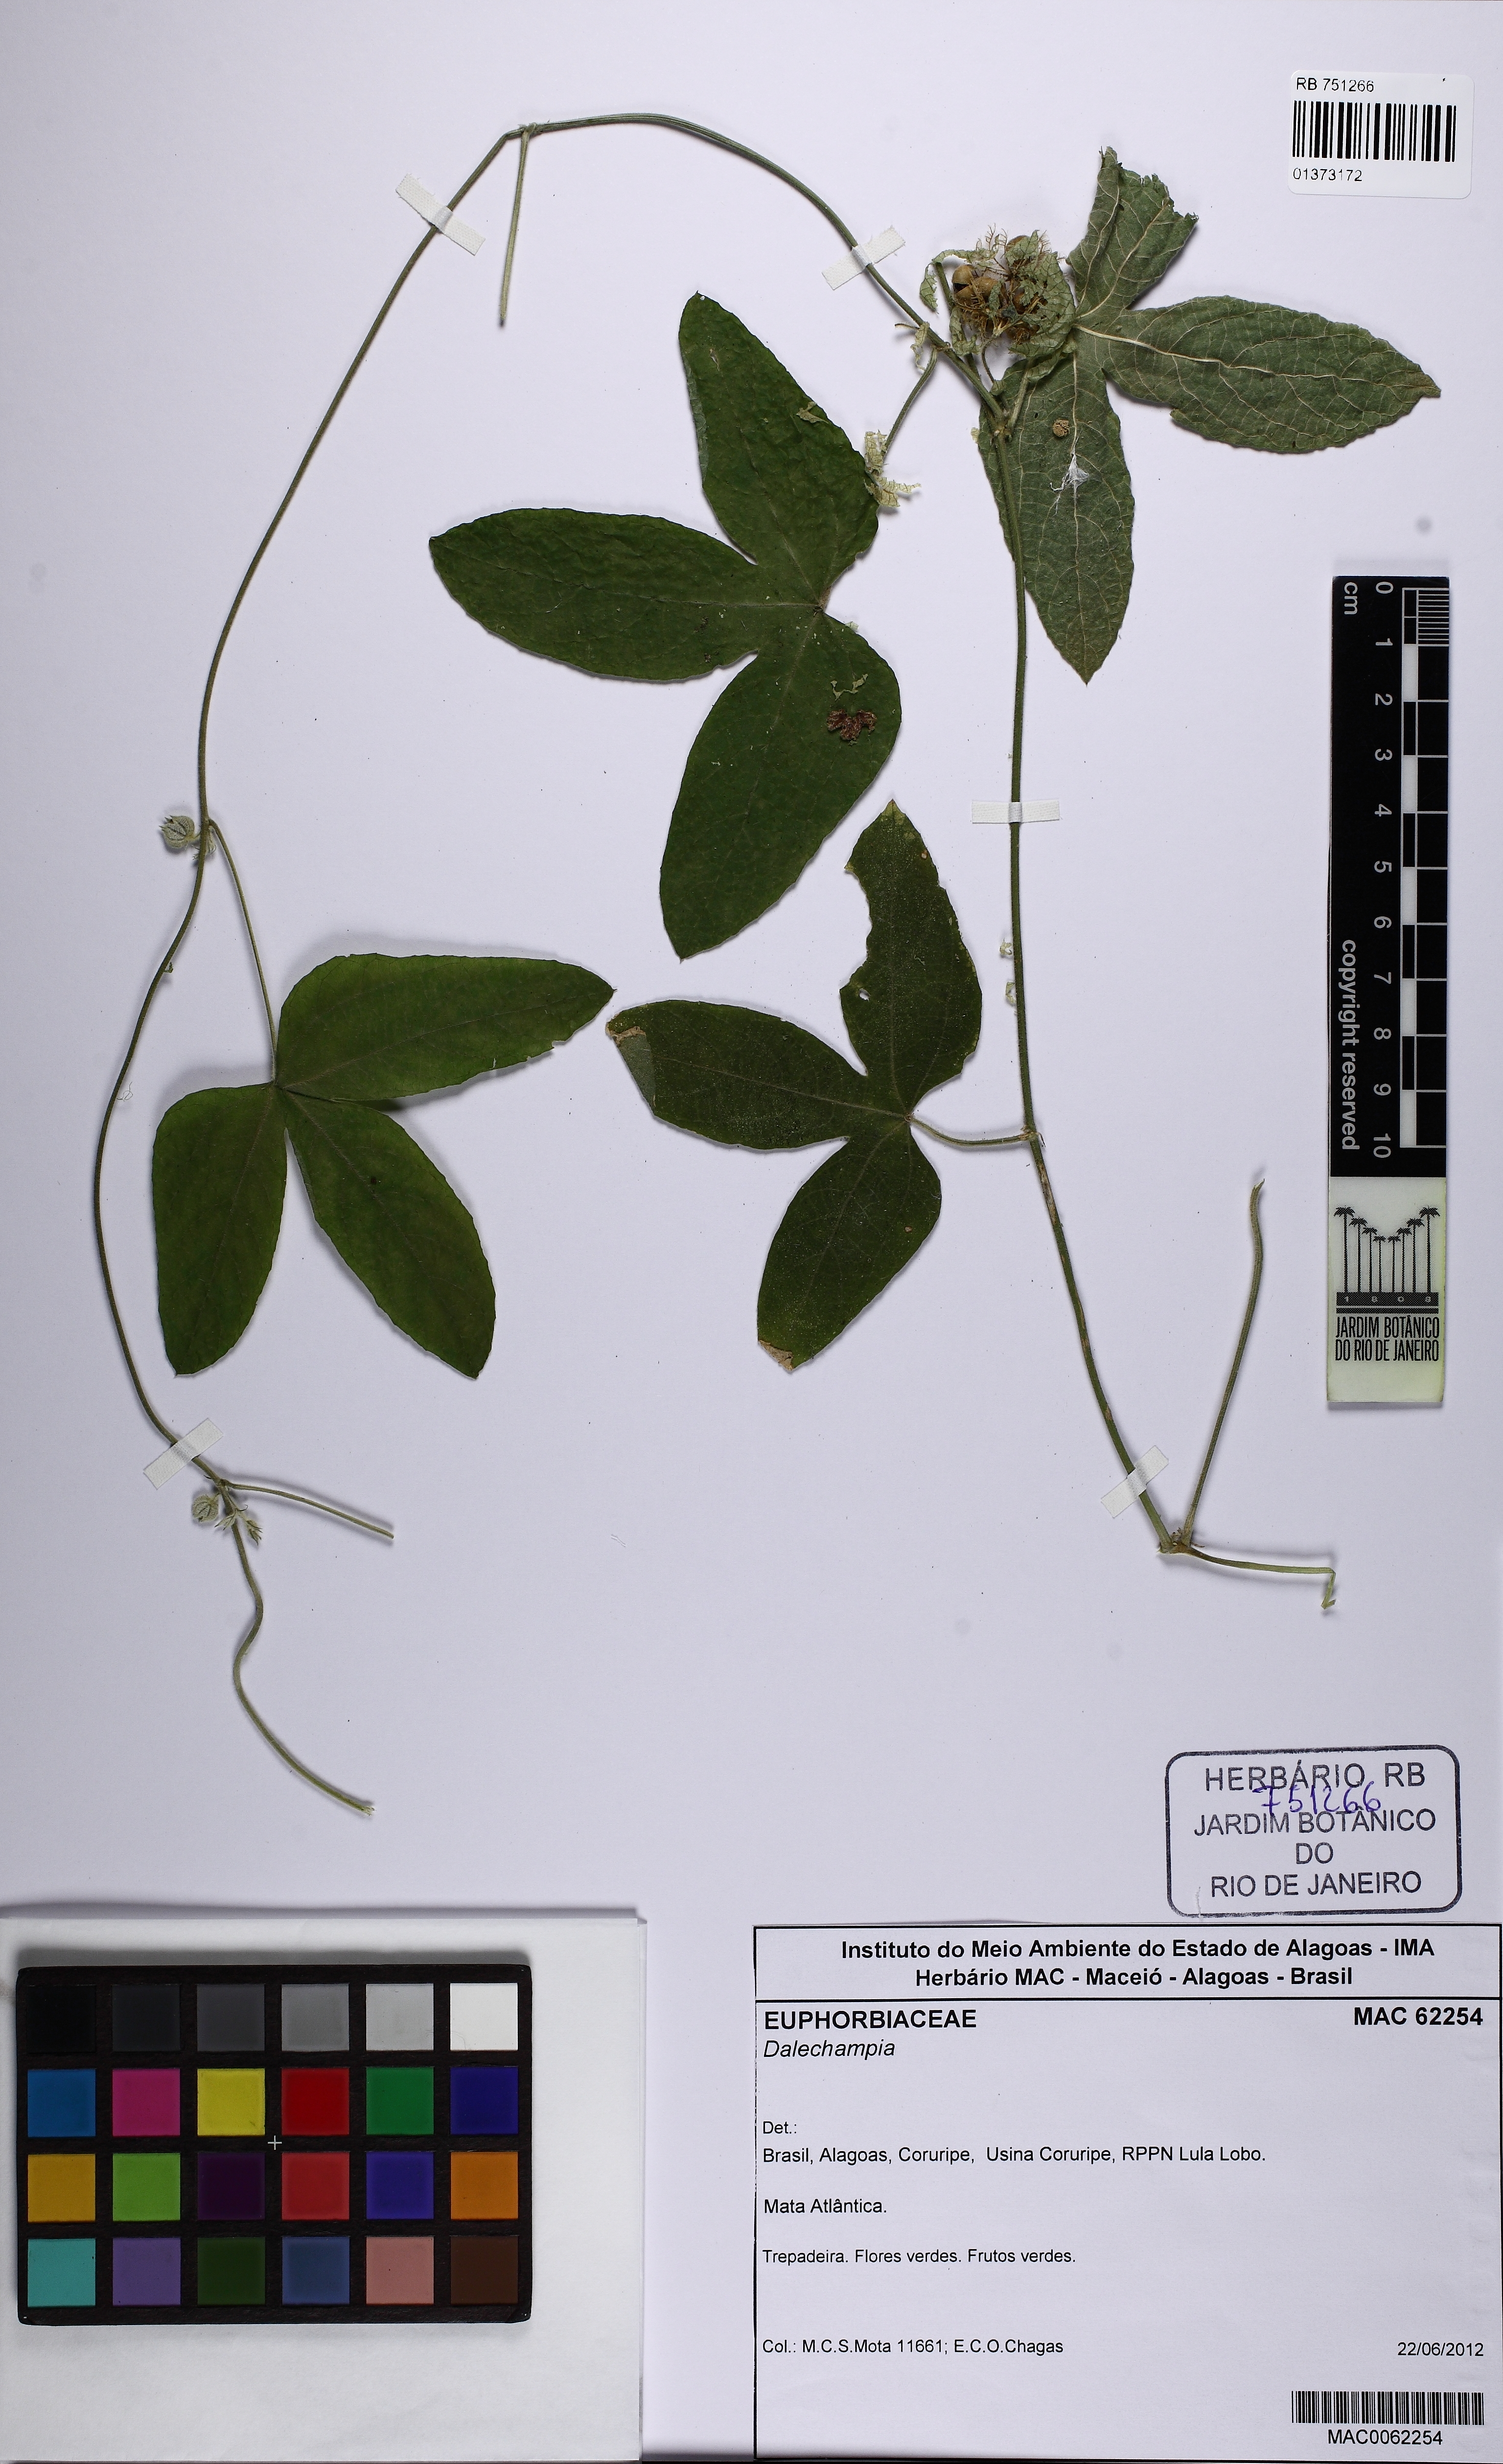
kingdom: Plantae
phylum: Tracheophyta
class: Magnoliopsida
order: Malpighiales
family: Euphorbiaceae
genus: Dalechampia
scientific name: Dalechampia scandens
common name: Spurgecreeper
